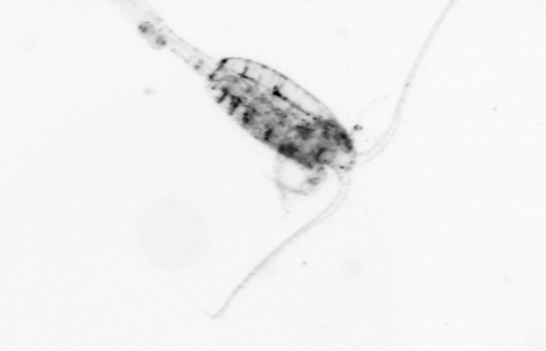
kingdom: Animalia
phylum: Arthropoda
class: Copepoda
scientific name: Copepoda
